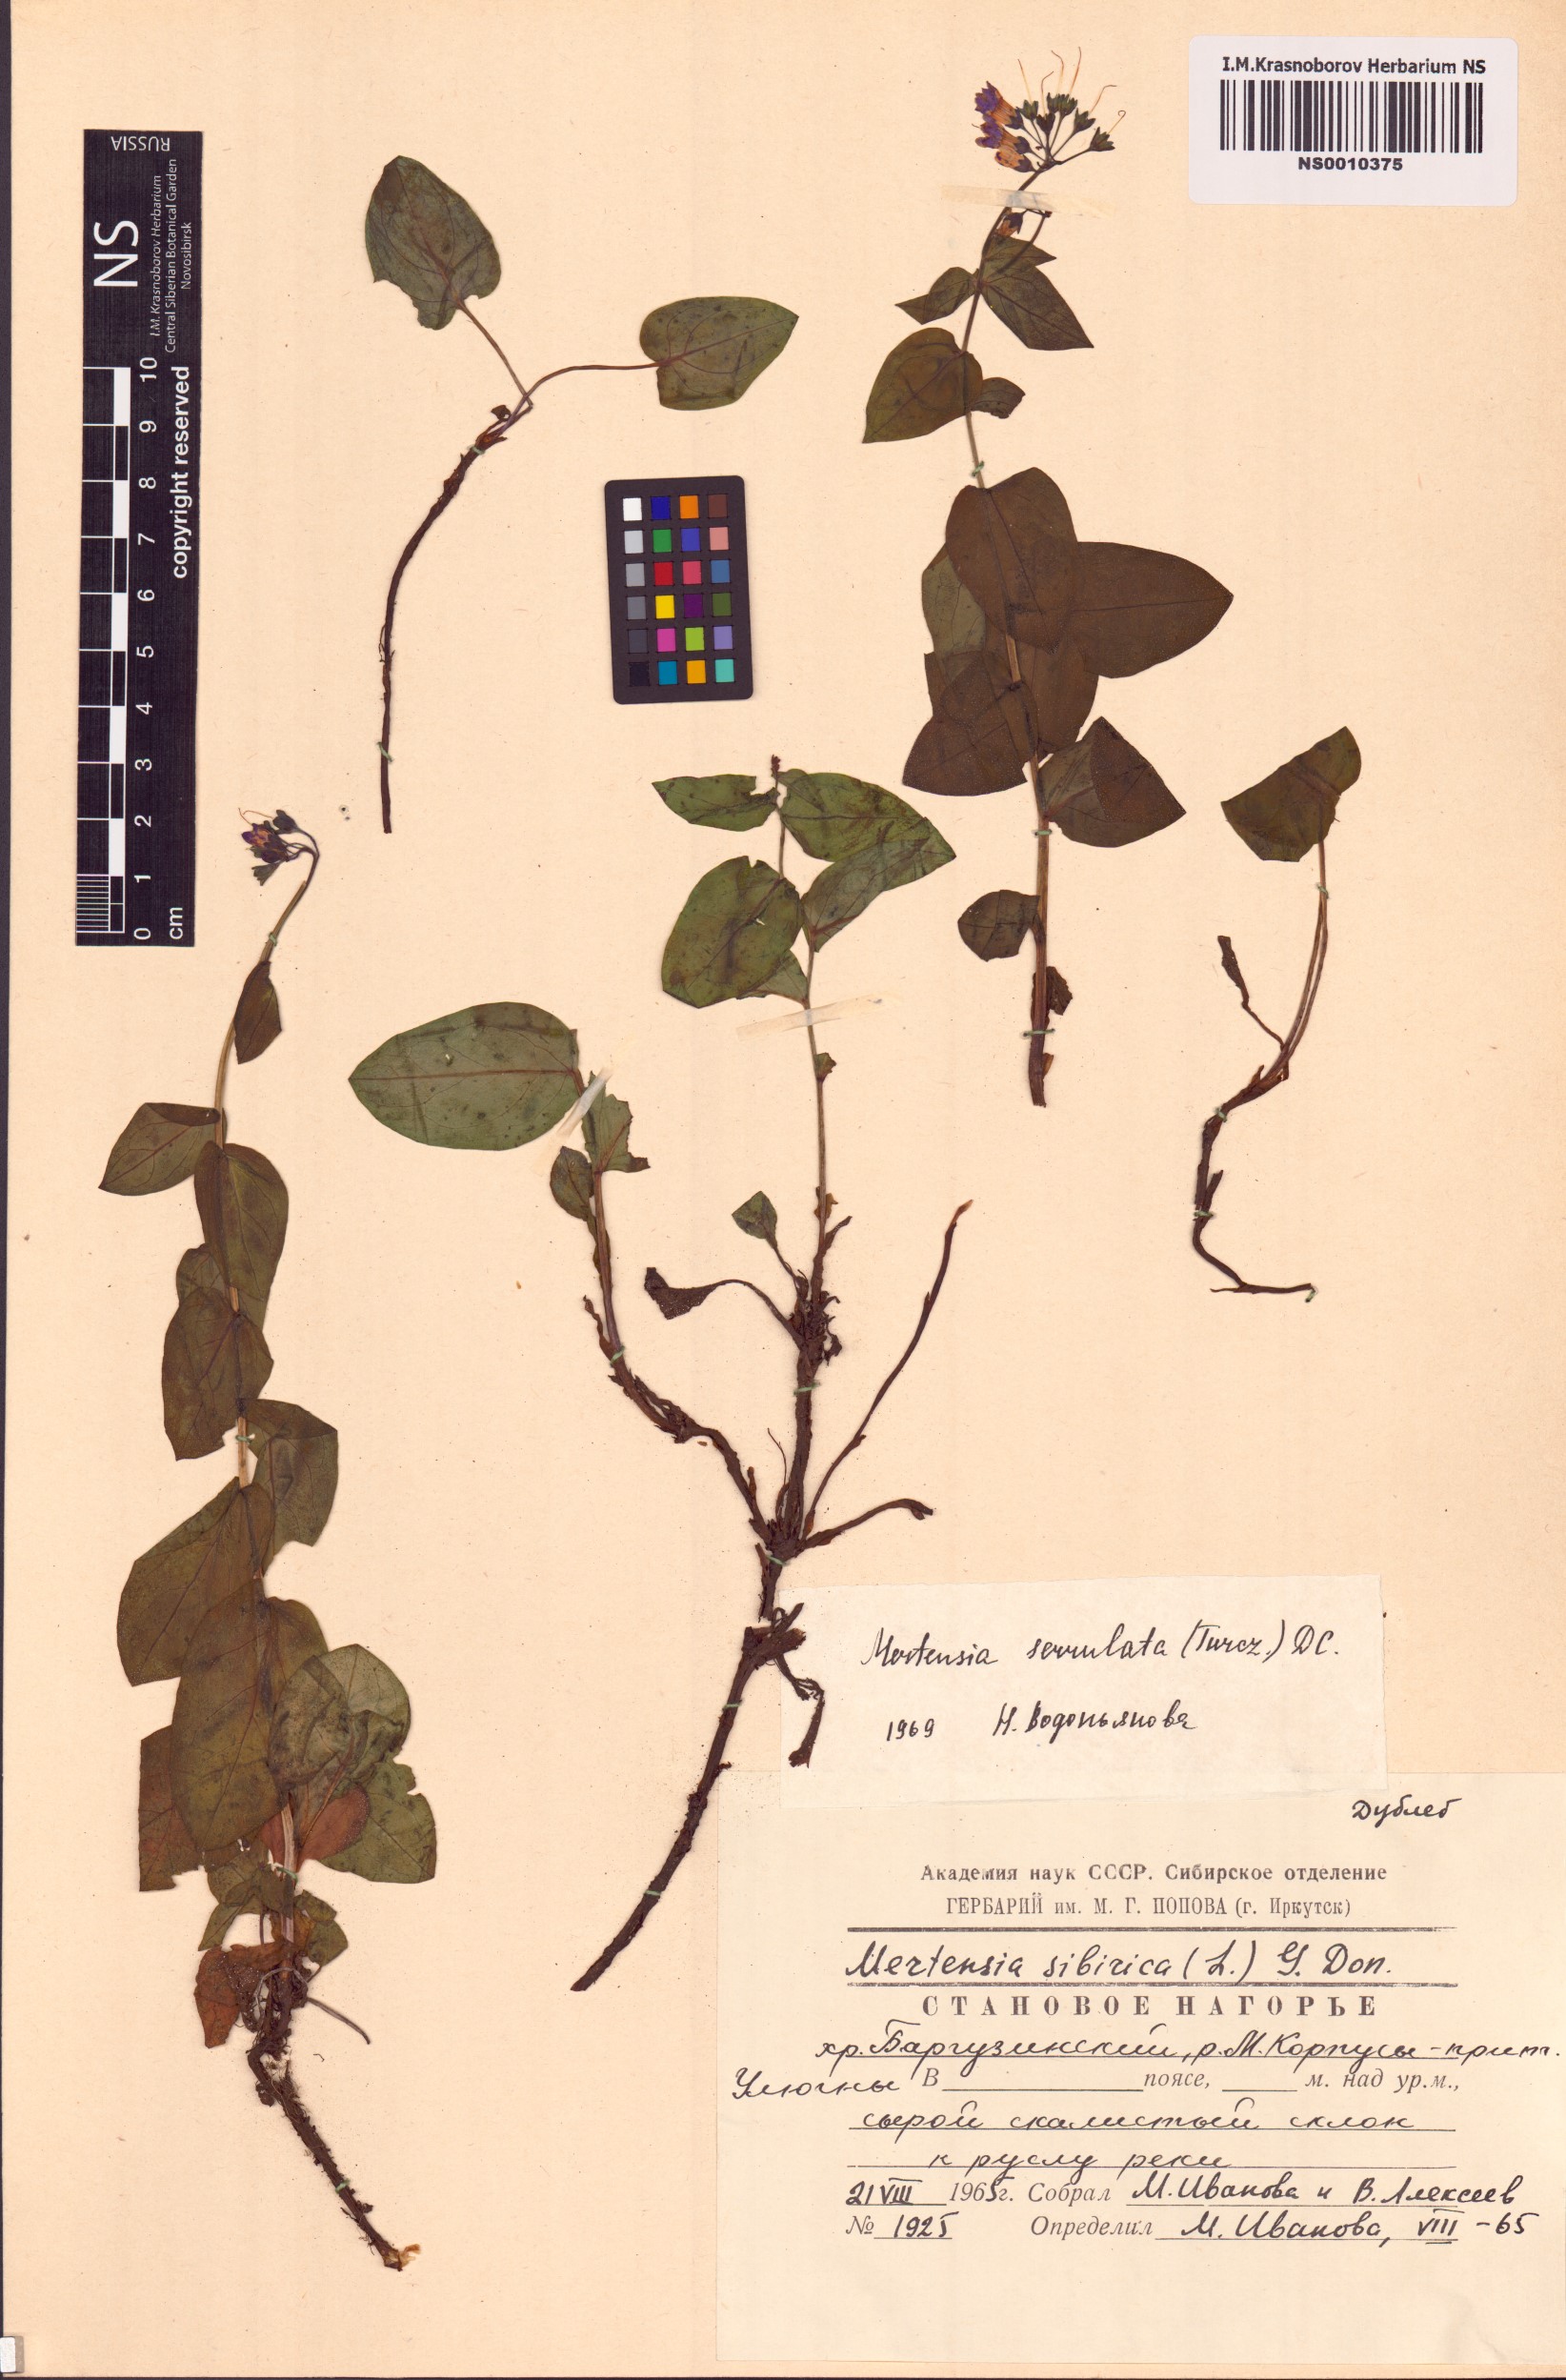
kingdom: Plantae
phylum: Tracheophyta
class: Magnoliopsida
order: Boraginales
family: Boraginaceae
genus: Mertensia
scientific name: Mertensia serrulata
